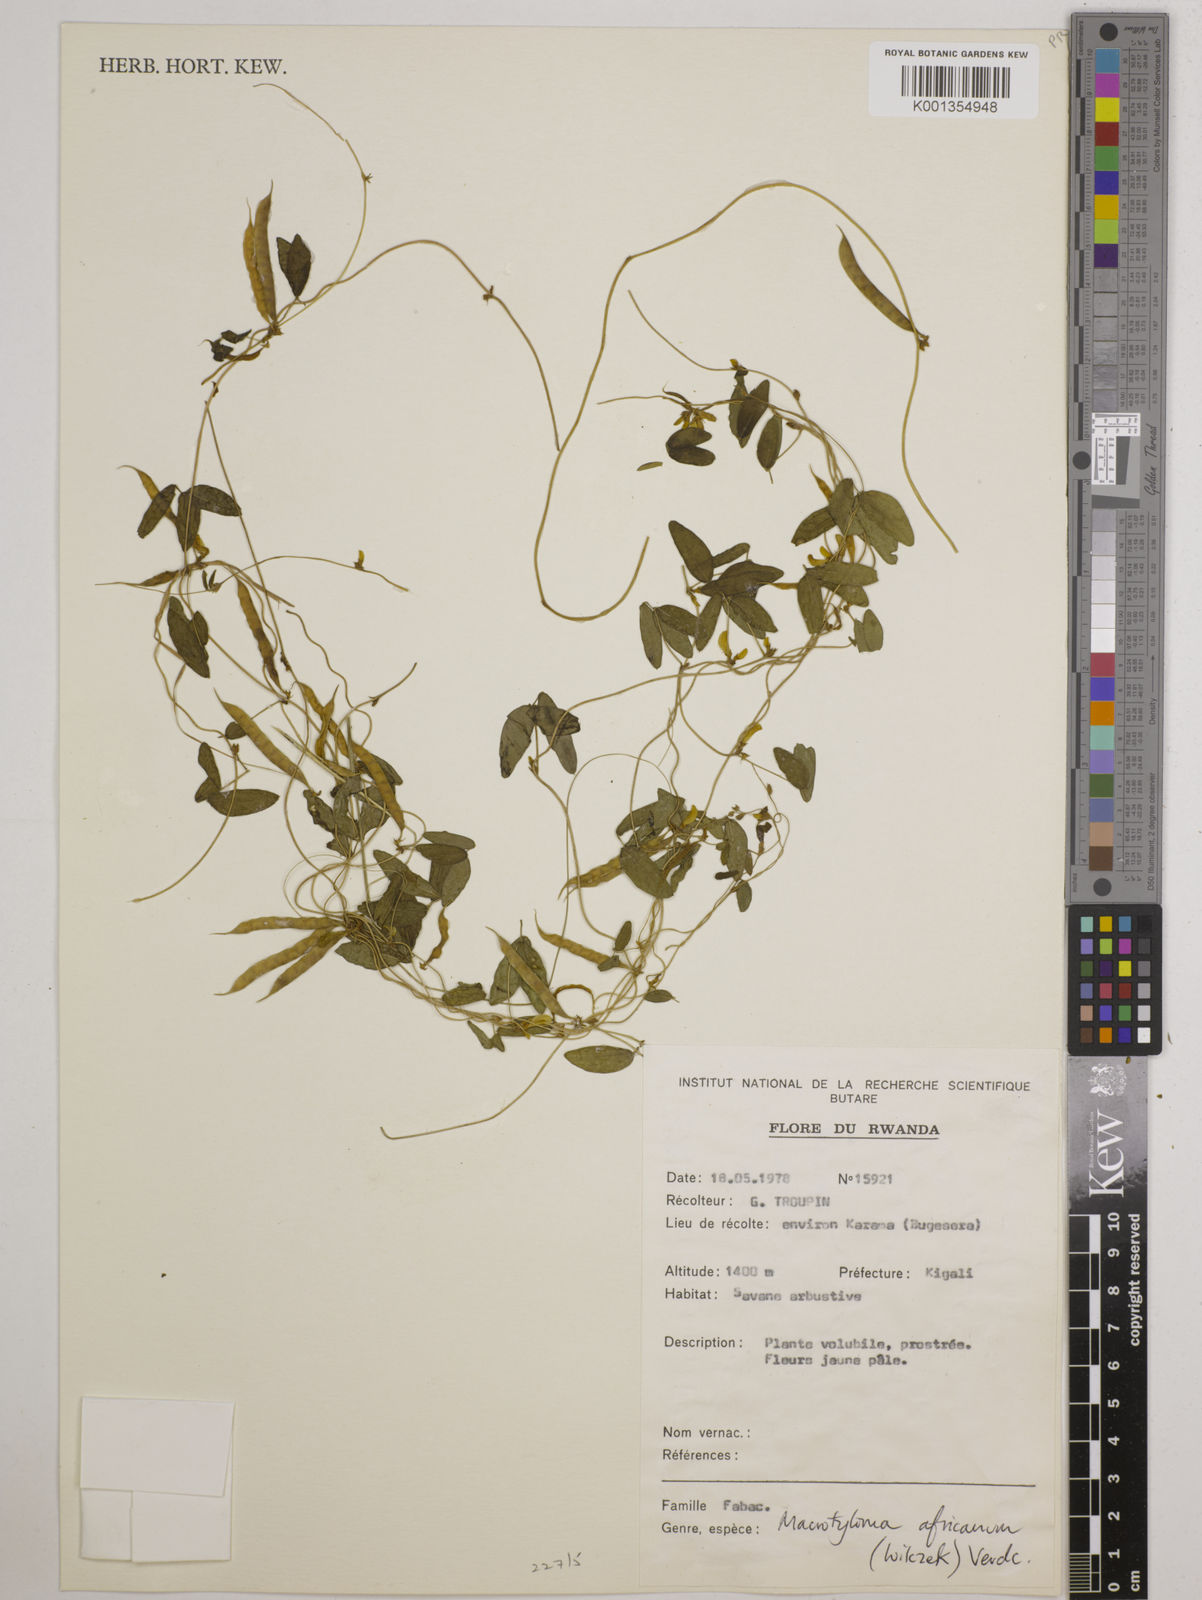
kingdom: Plantae
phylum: Tracheophyta
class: Magnoliopsida
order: Fabales
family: Fabaceae
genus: Macrotyloma
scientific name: Macrotyloma africanum
